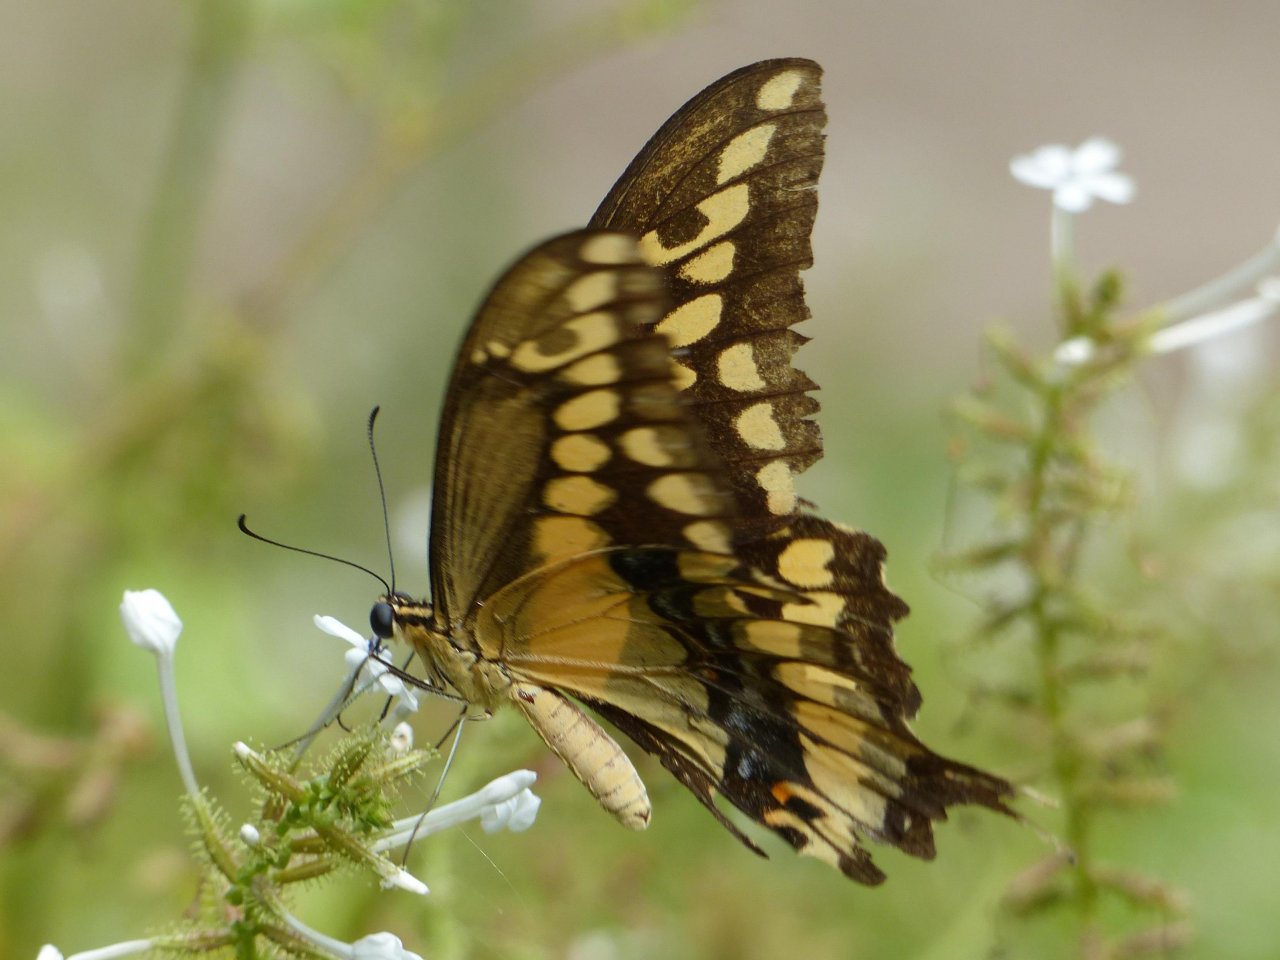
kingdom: Animalia
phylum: Arthropoda
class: Insecta
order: Lepidoptera
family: Papilionidae
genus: Papilio
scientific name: Papilio rumiko
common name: Western Giant Swallowtail
